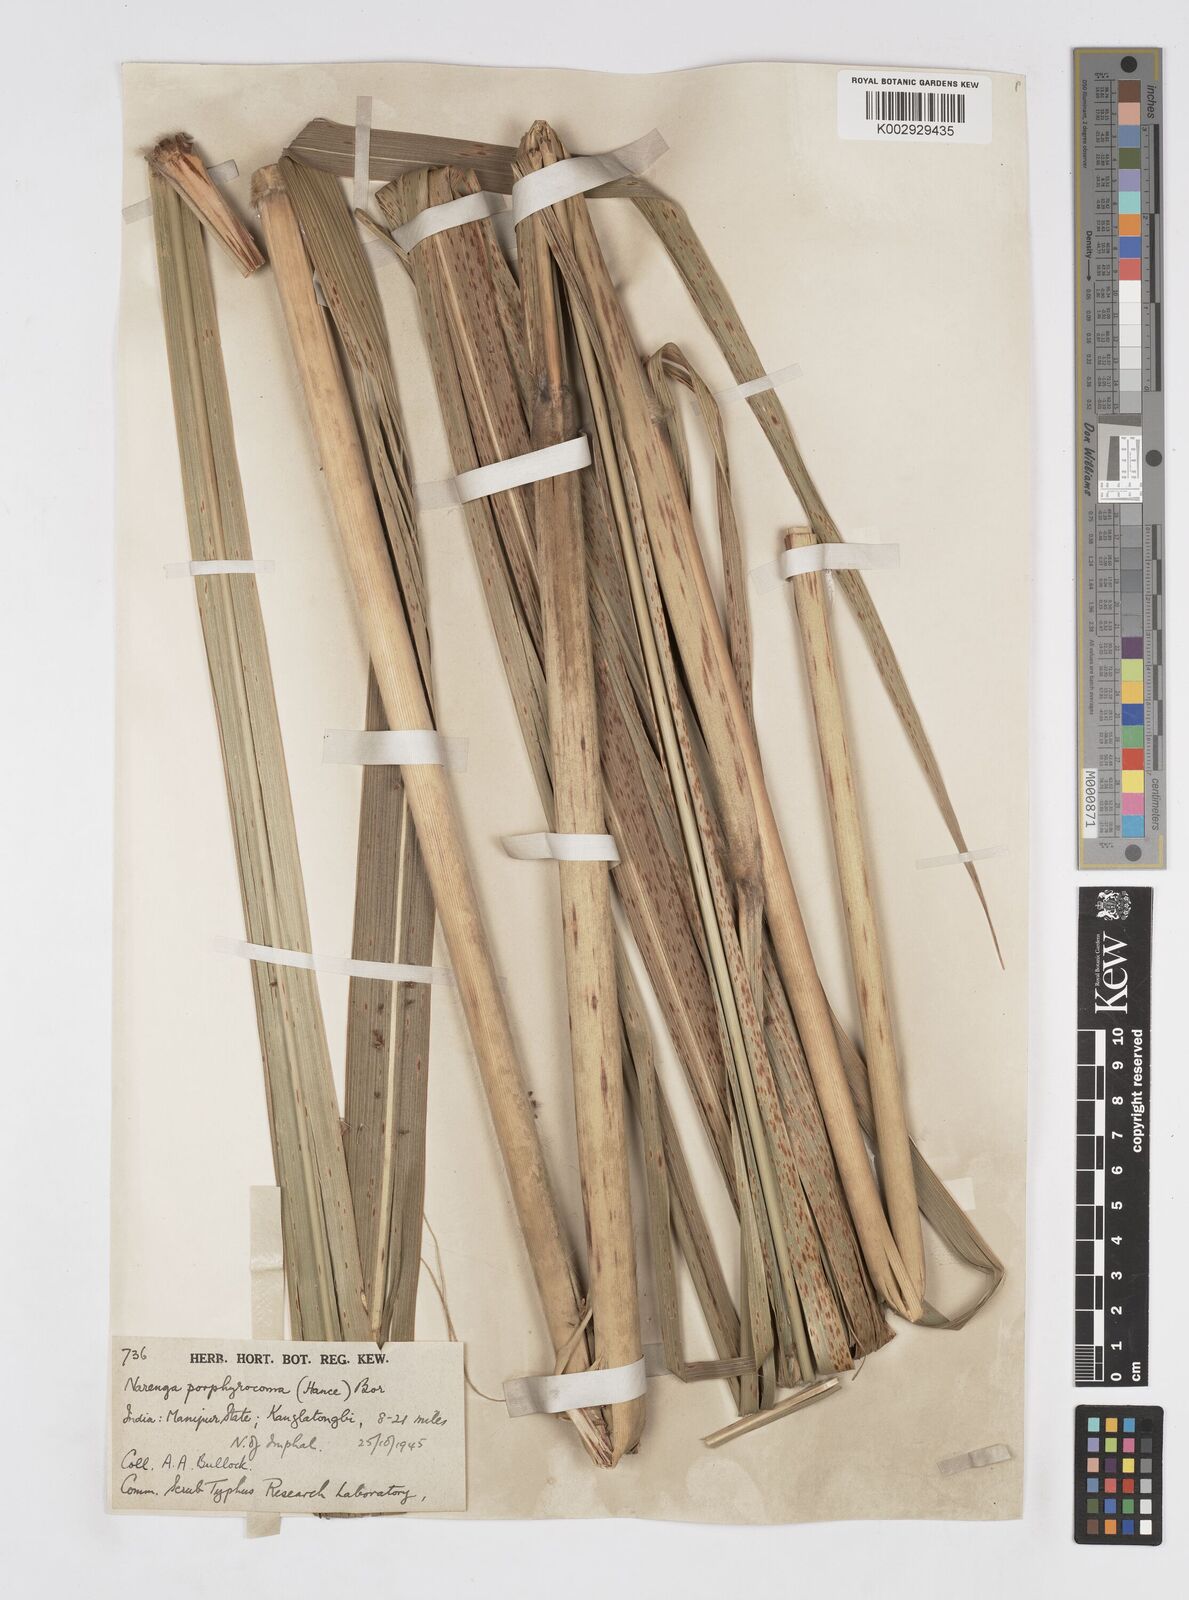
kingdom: Plantae
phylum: Tracheophyta
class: Liliopsida
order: Poales
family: Poaceae
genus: Narenga
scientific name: Narenga porphyrocoma
